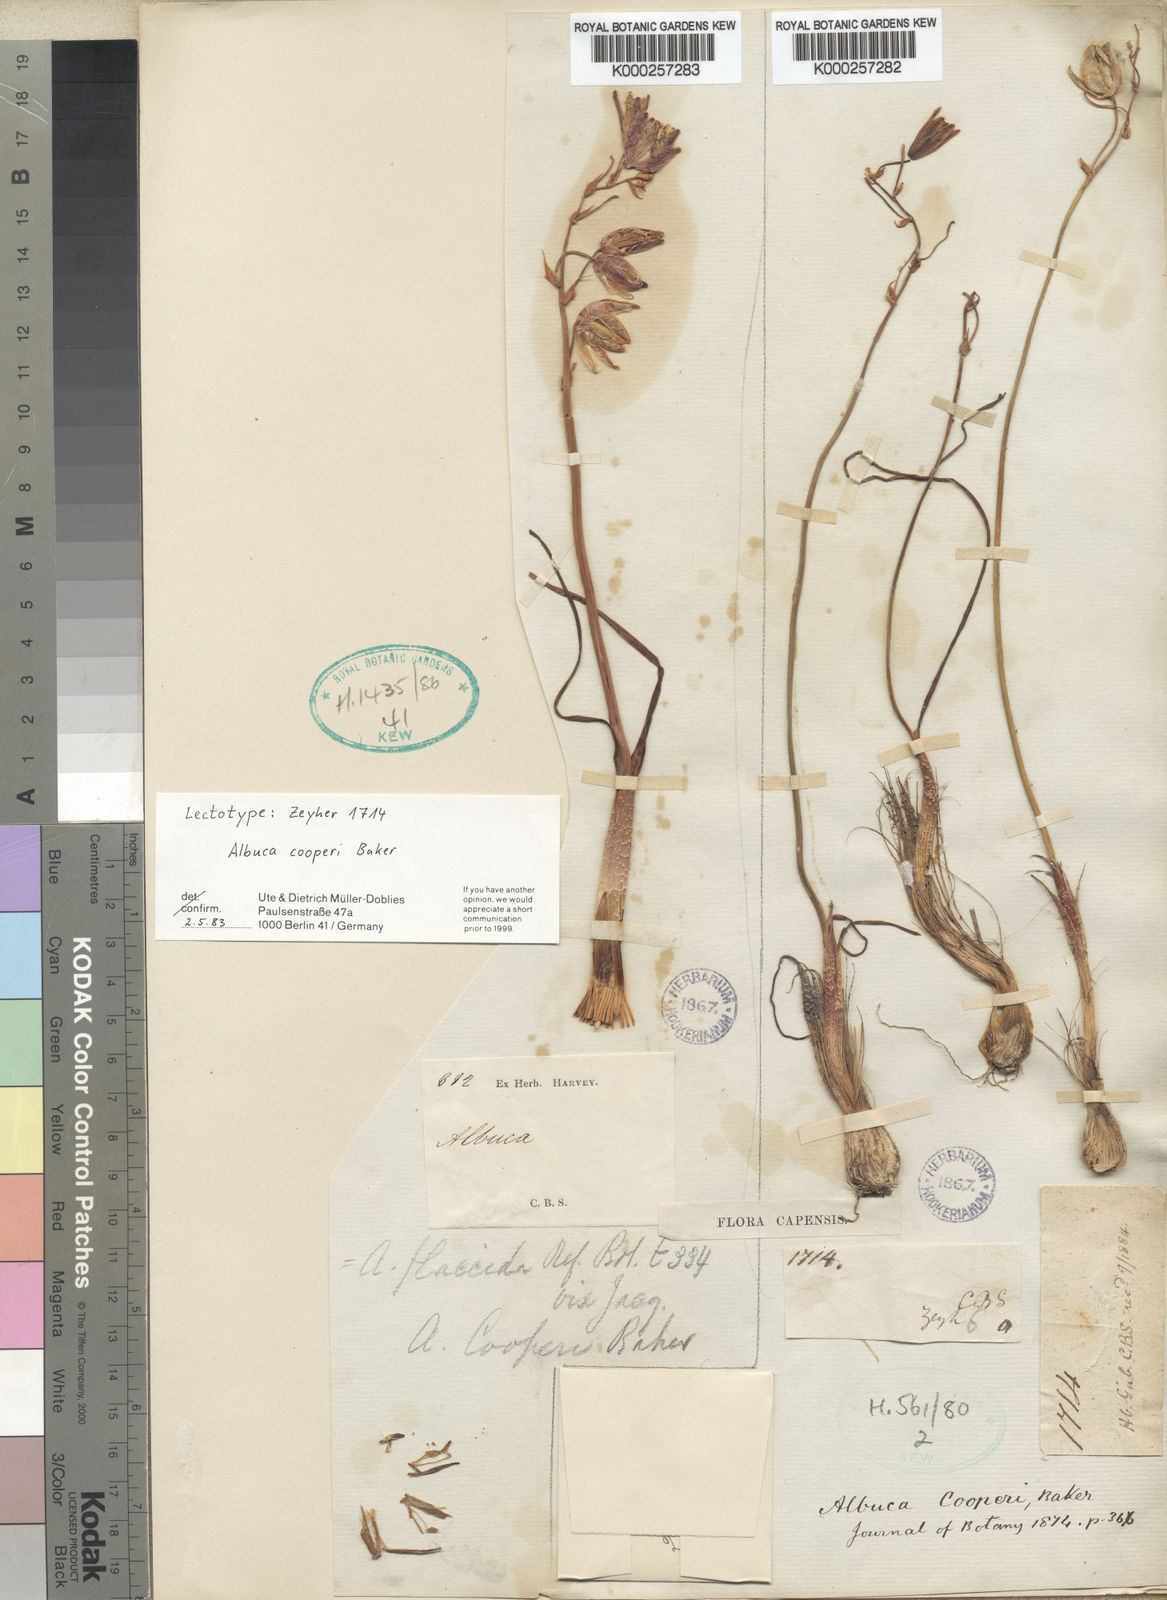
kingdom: Plantae
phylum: Tracheophyta
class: Liliopsida
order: Asparagales
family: Asparagaceae
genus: Albuca
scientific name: Albuca cooperi
